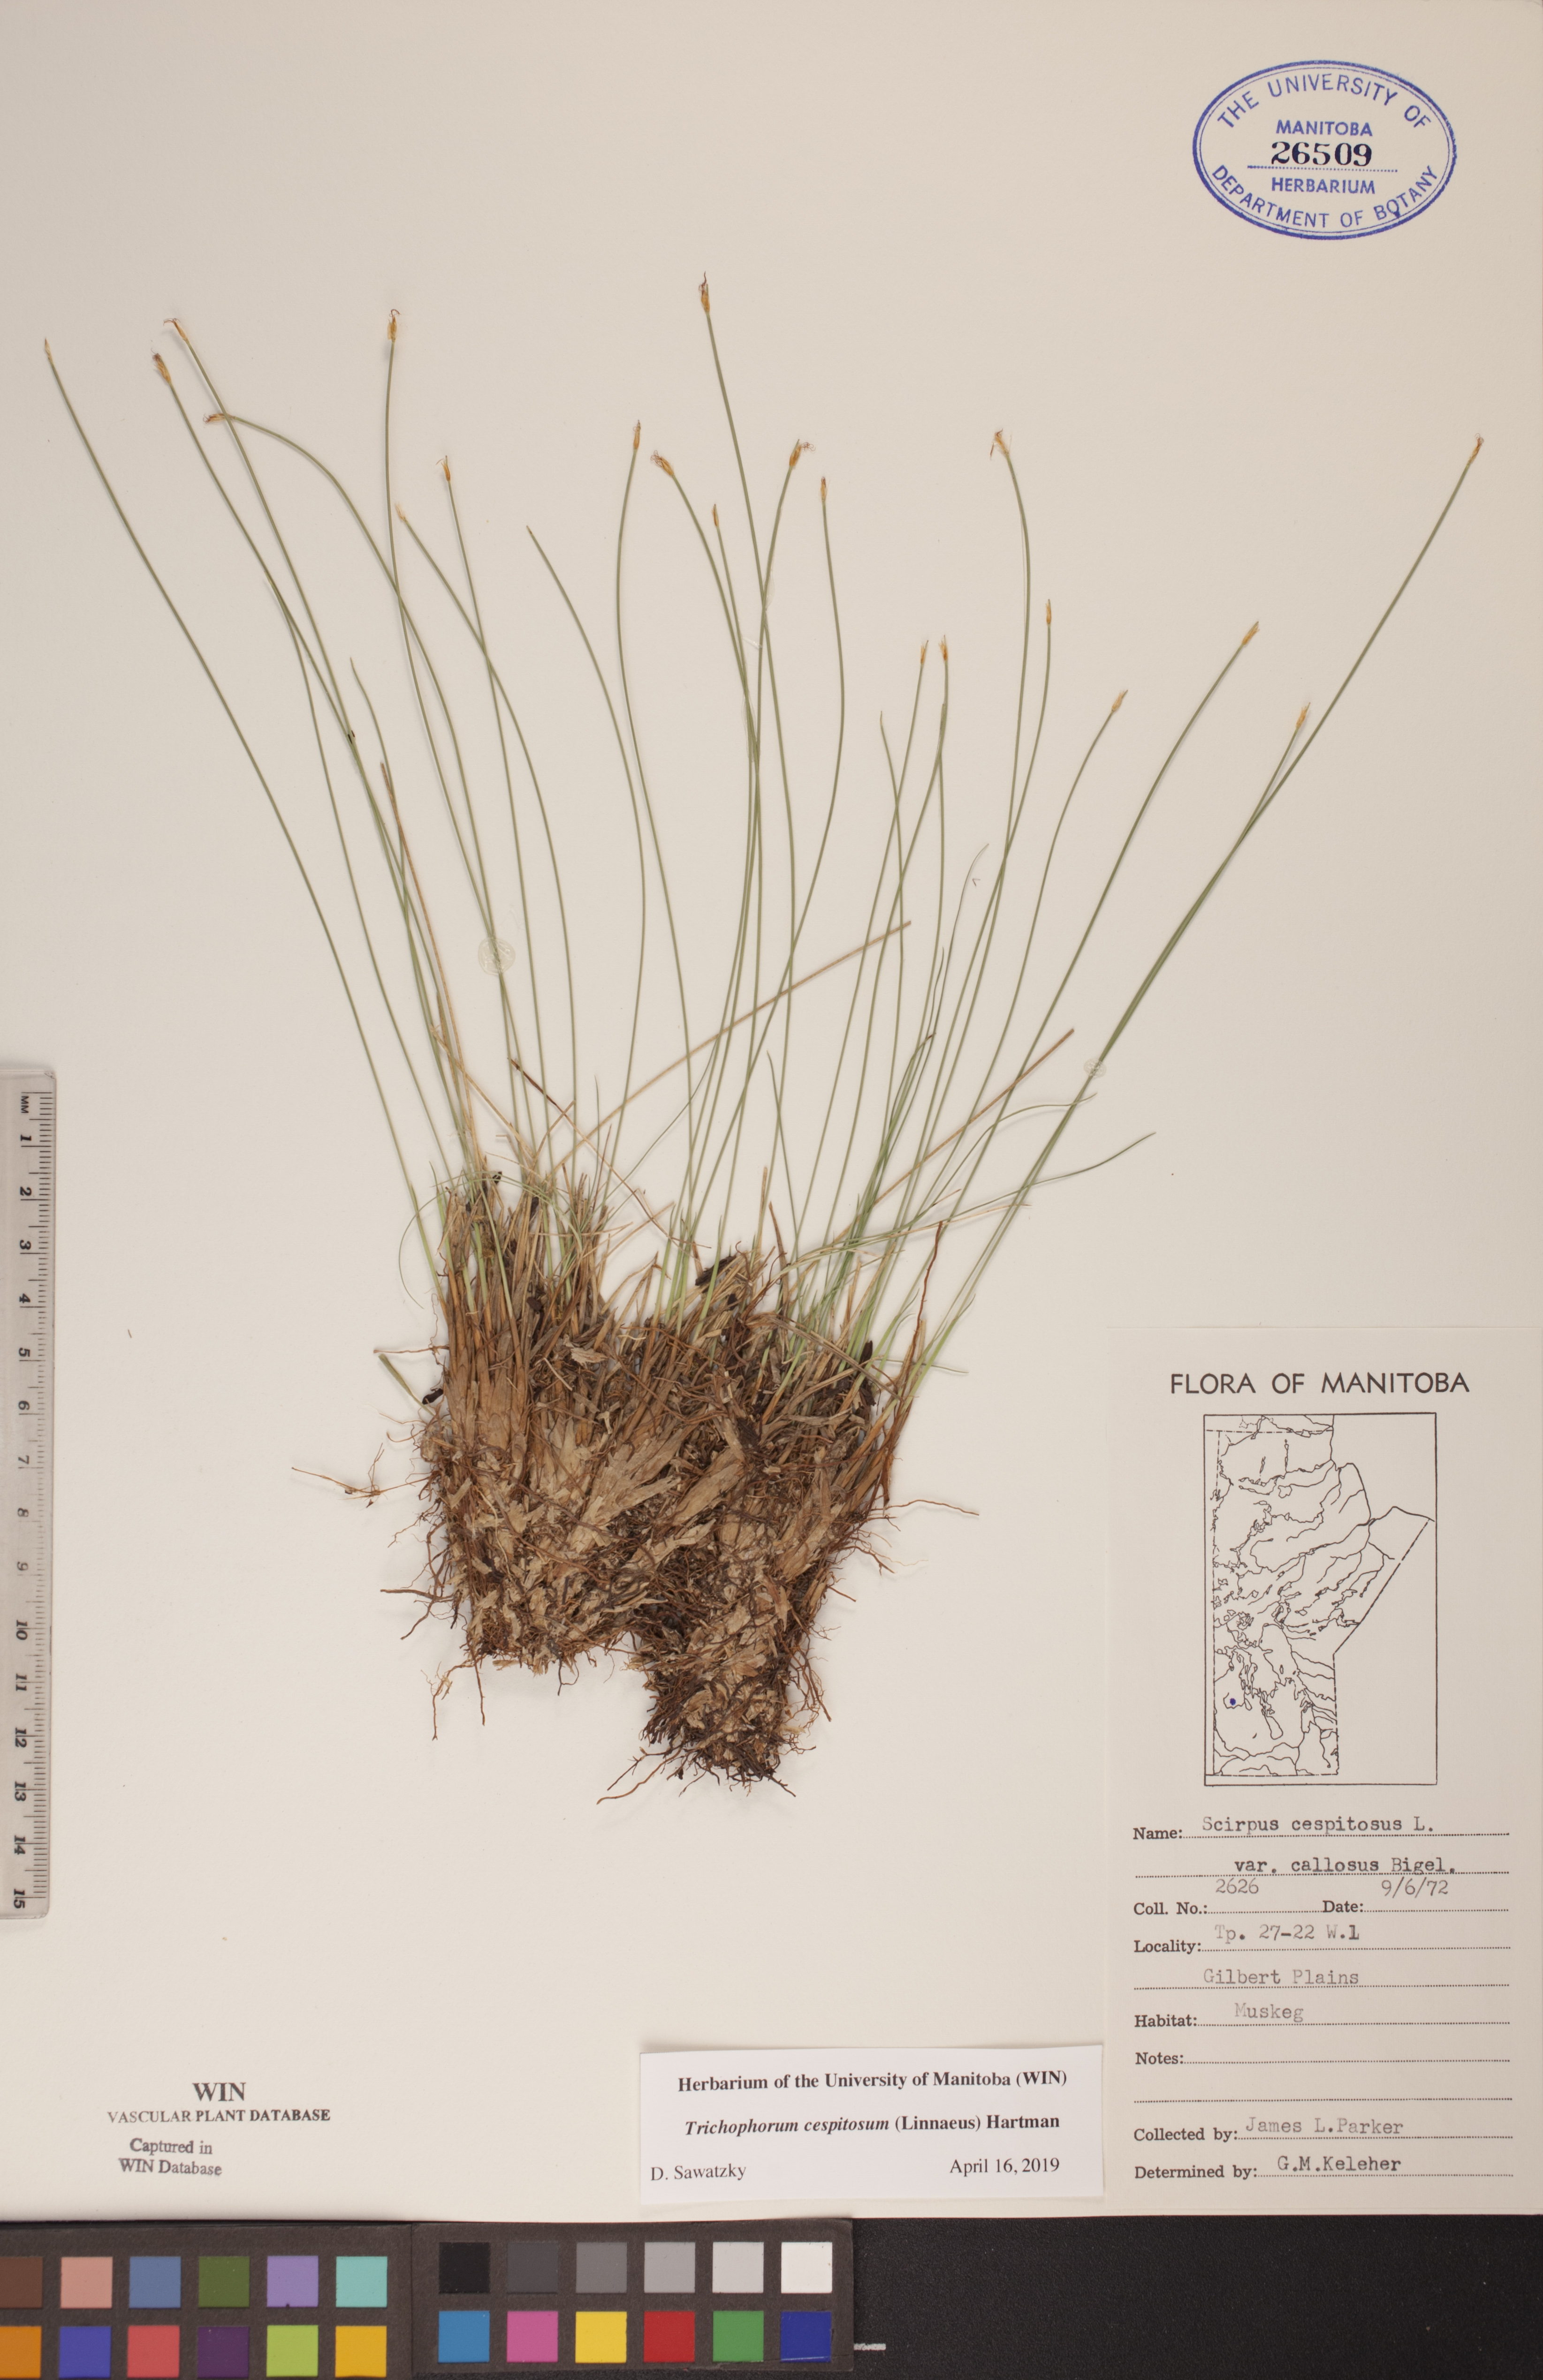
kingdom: Plantae
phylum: Tracheophyta
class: Liliopsida
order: Poales
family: Cyperaceae
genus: Trichophorum
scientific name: Trichophorum cespitosum
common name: Cespitose bulrush
